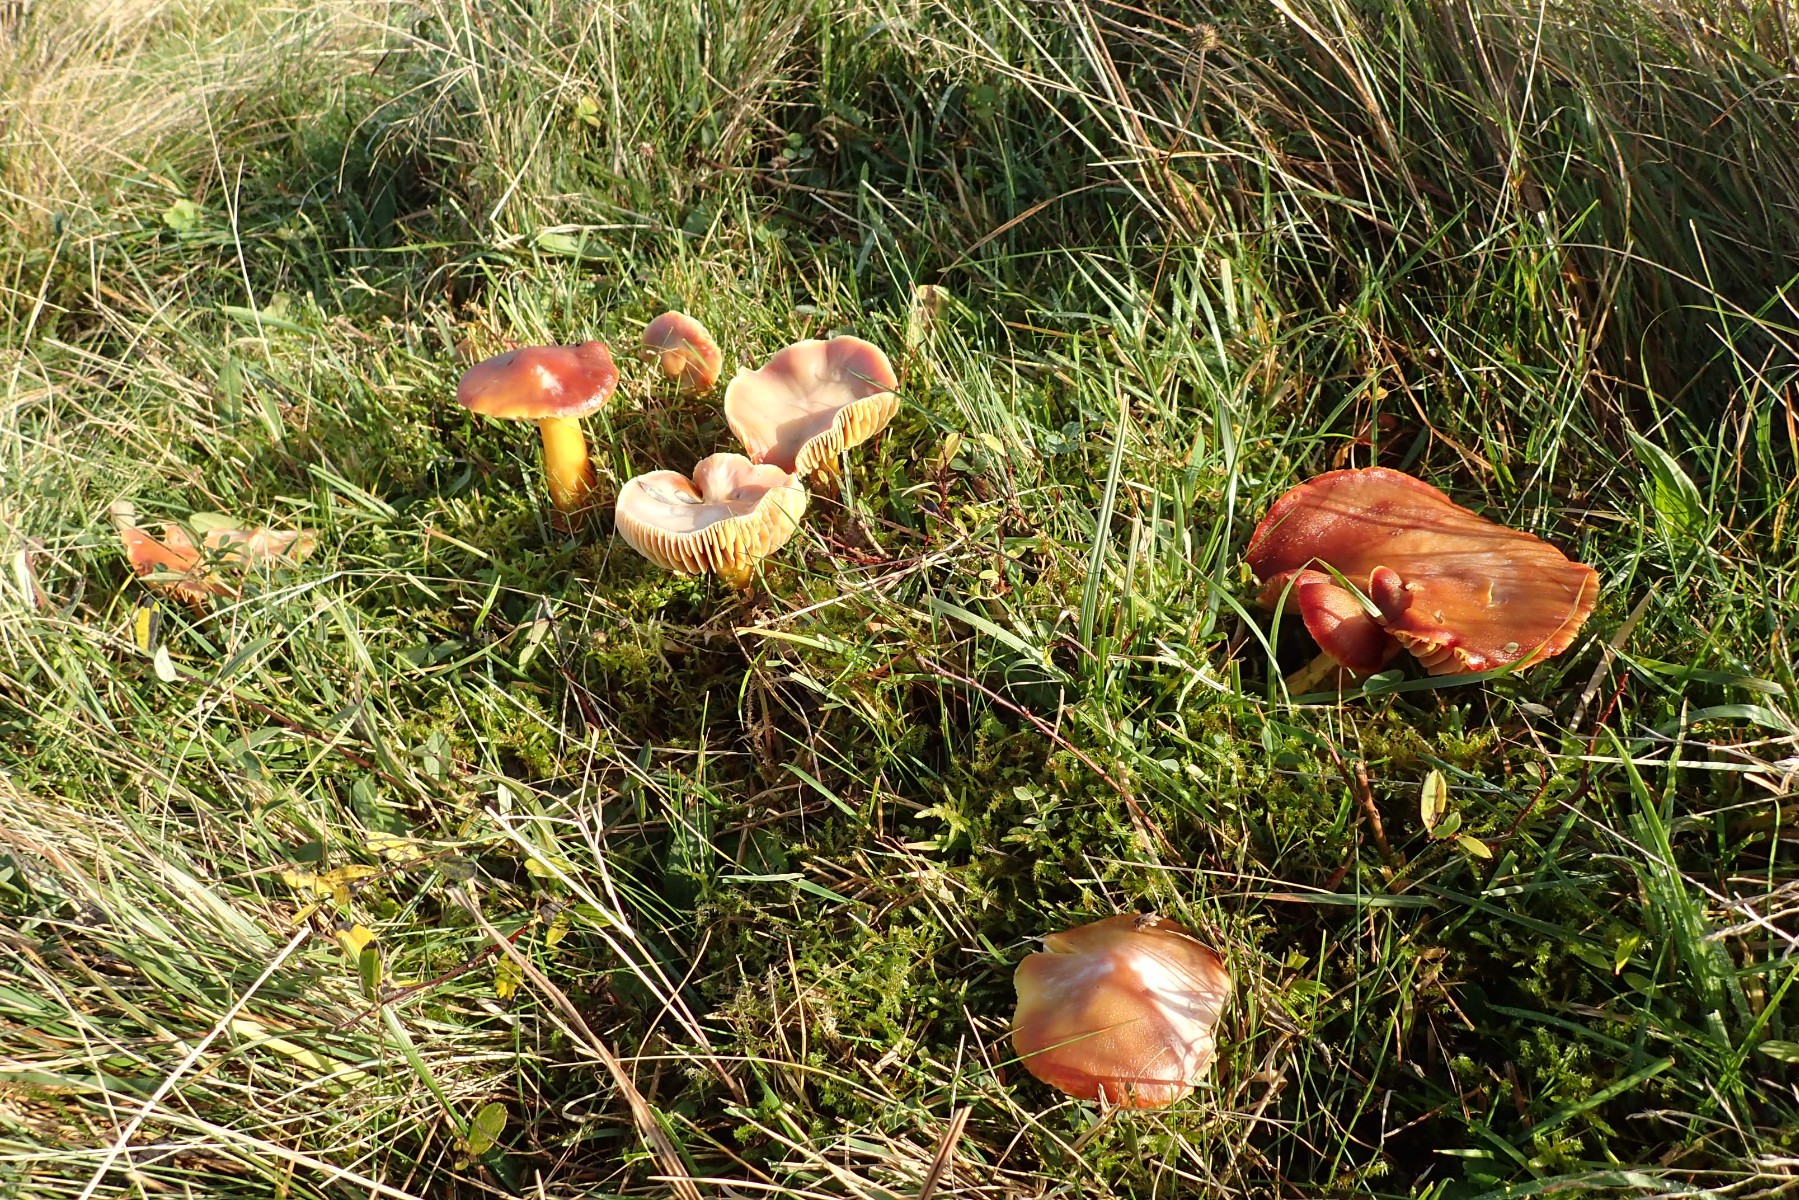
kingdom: Fungi
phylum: Basidiomycota
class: Agaricomycetes
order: Agaricales
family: Hygrophoraceae
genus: Hygrocybe
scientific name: Hygrocybe punicea
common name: skarlagen-vokshat
